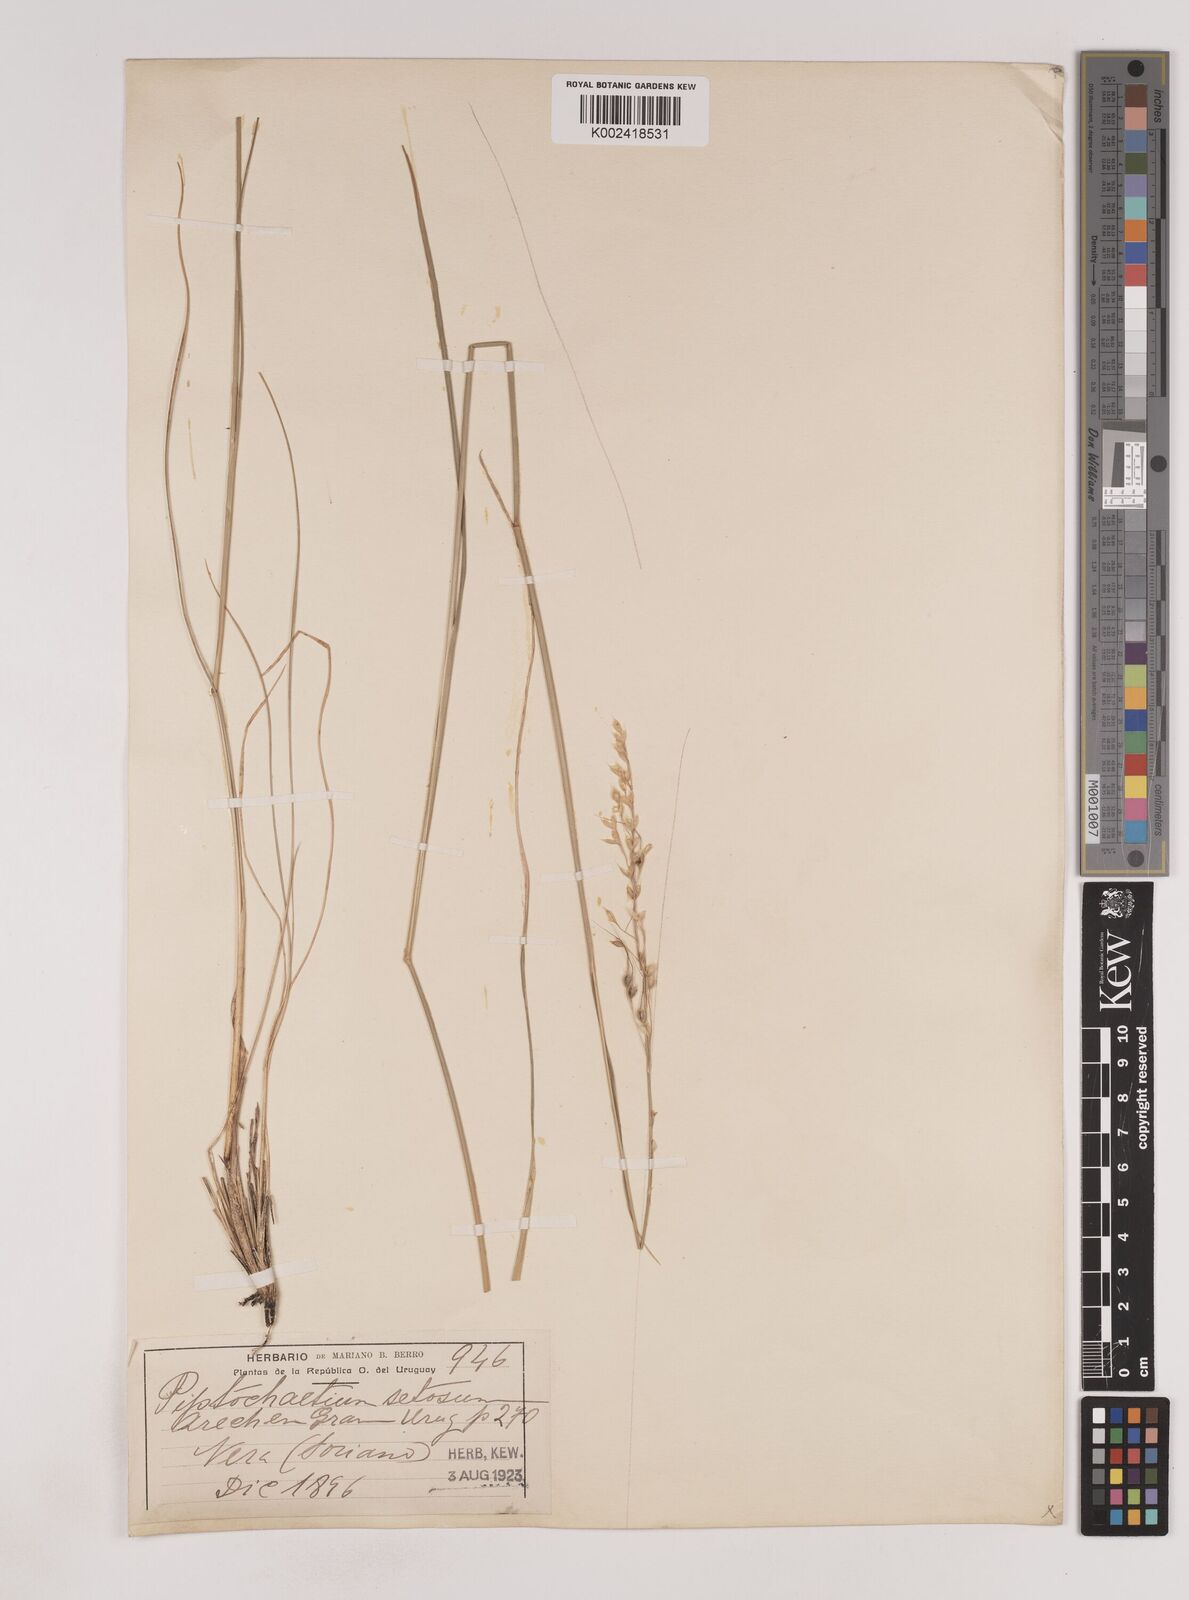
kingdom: Plantae
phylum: Tracheophyta
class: Liliopsida
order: Poales
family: Poaceae
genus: Piptochaetium
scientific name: Piptochaetium fuscum
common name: Bristly speargrass
